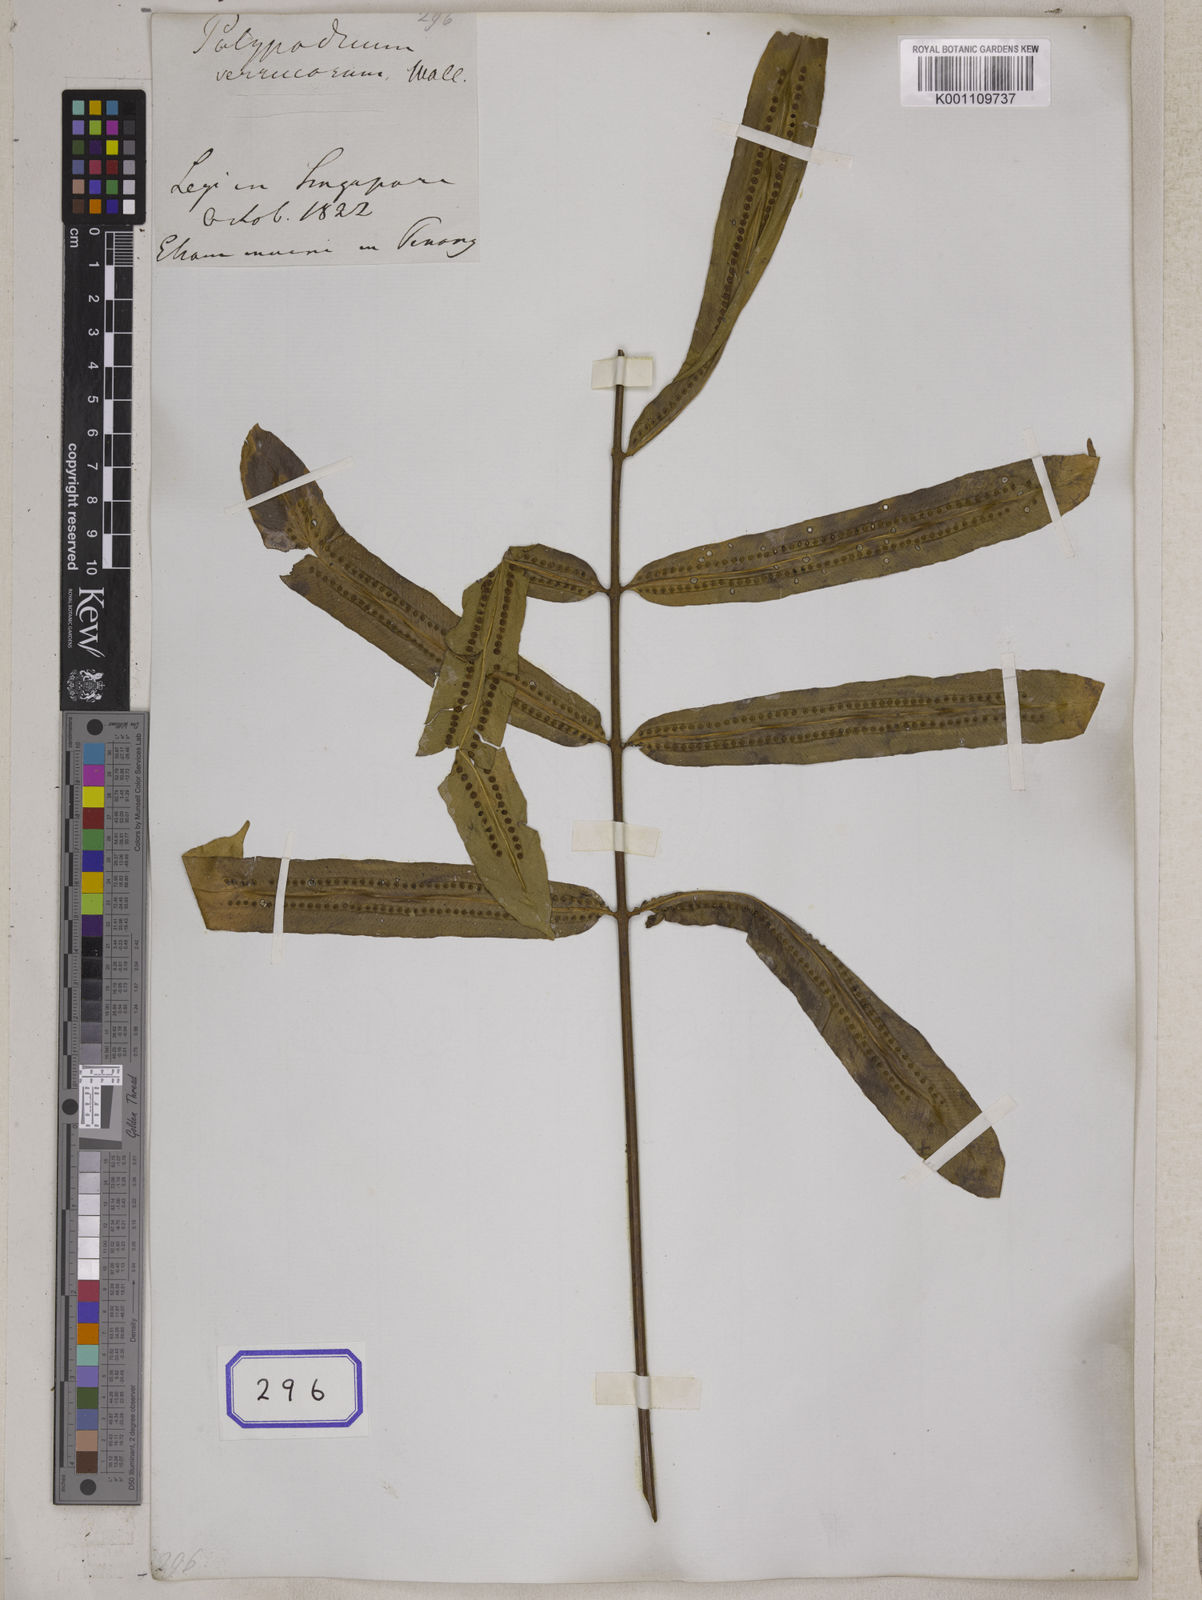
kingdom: Plantae
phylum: Tracheophyta
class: Polypodiopsida
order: Polypodiales
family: Polypodiaceae
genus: Goniophlebium
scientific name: Goniophlebium percussum
